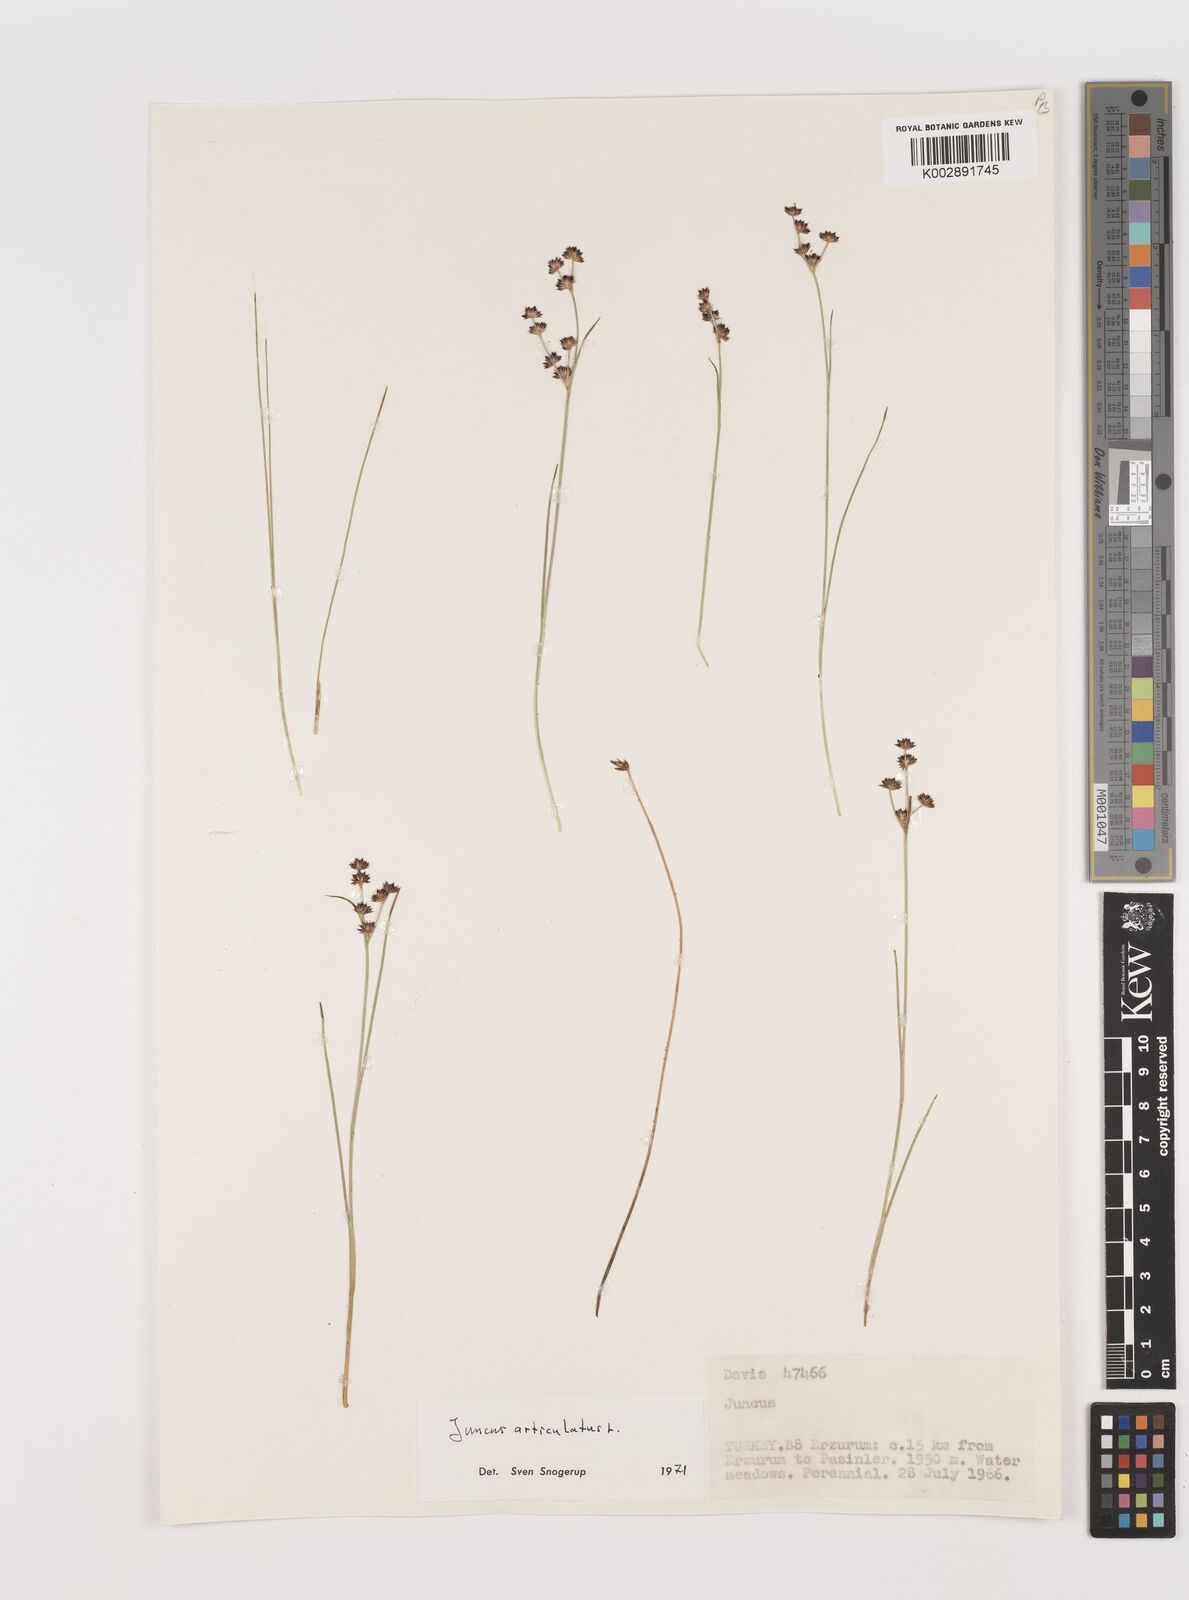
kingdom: Plantae
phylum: Tracheophyta
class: Liliopsida
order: Poales
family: Juncaceae
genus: Juncus
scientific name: Juncus articulatus
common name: Jointed rush
